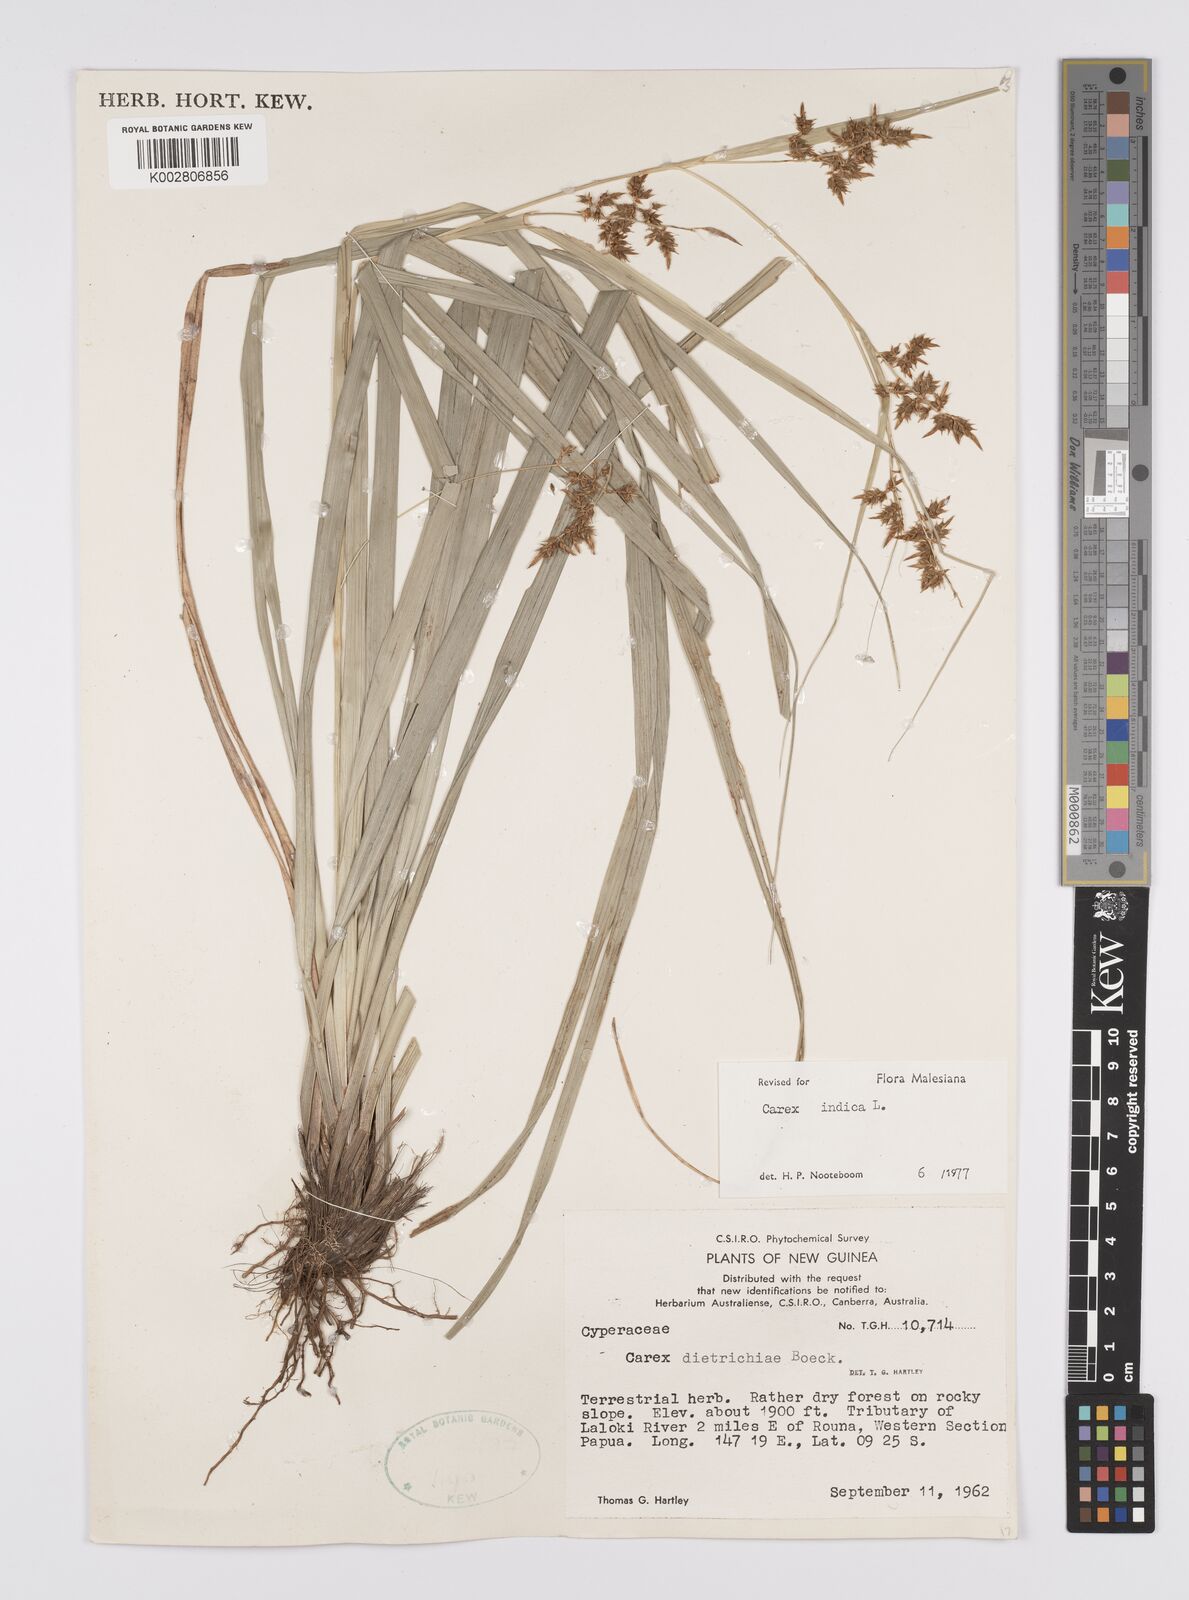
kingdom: Plantae
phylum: Tracheophyta
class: Liliopsida
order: Poales
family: Cyperaceae
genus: Carex
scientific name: Carex indica
